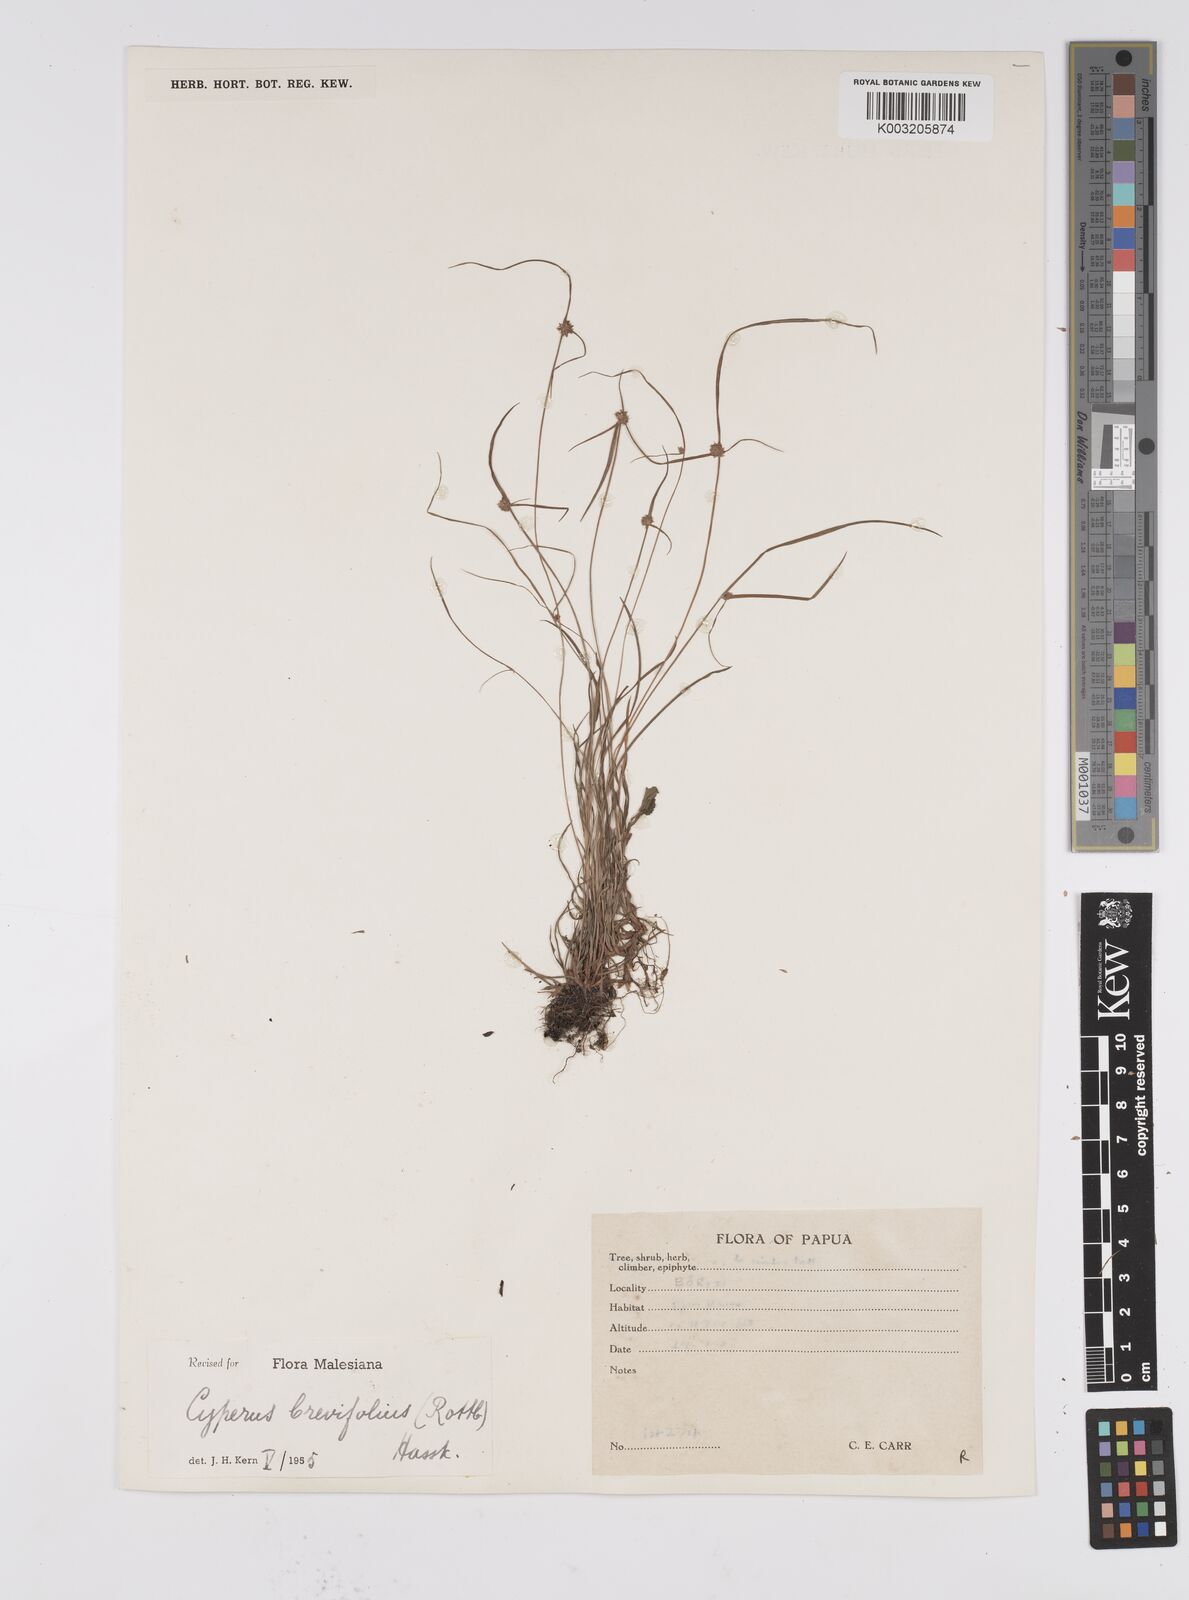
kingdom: Plantae
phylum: Tracheophyta
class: Liliopsida
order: Poales
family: Cyperaceae
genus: Cyperus
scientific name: Cyperus brevifolius
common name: Globe kyllinga
